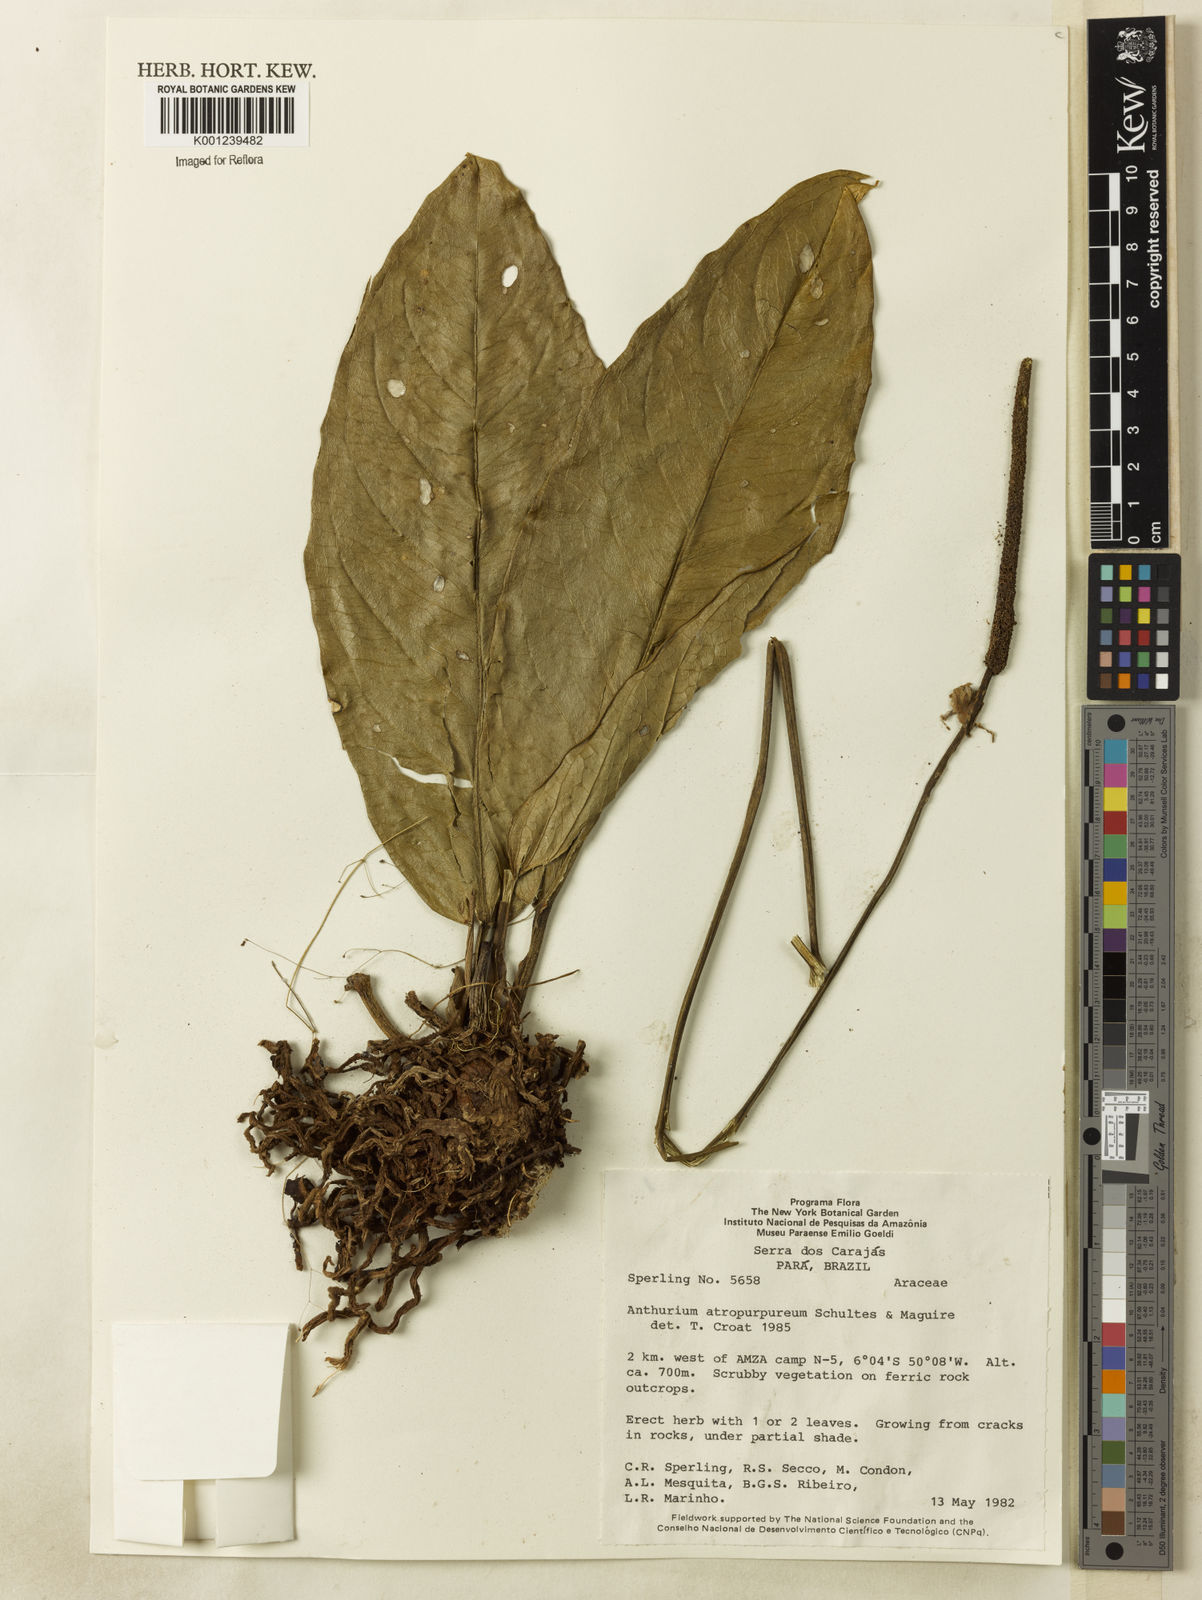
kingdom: Plantae
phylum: Tracheophyta
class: Liliopsida
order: Alismatales
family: Araceae
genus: Anthurium
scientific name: Anthurium atropurpureum
